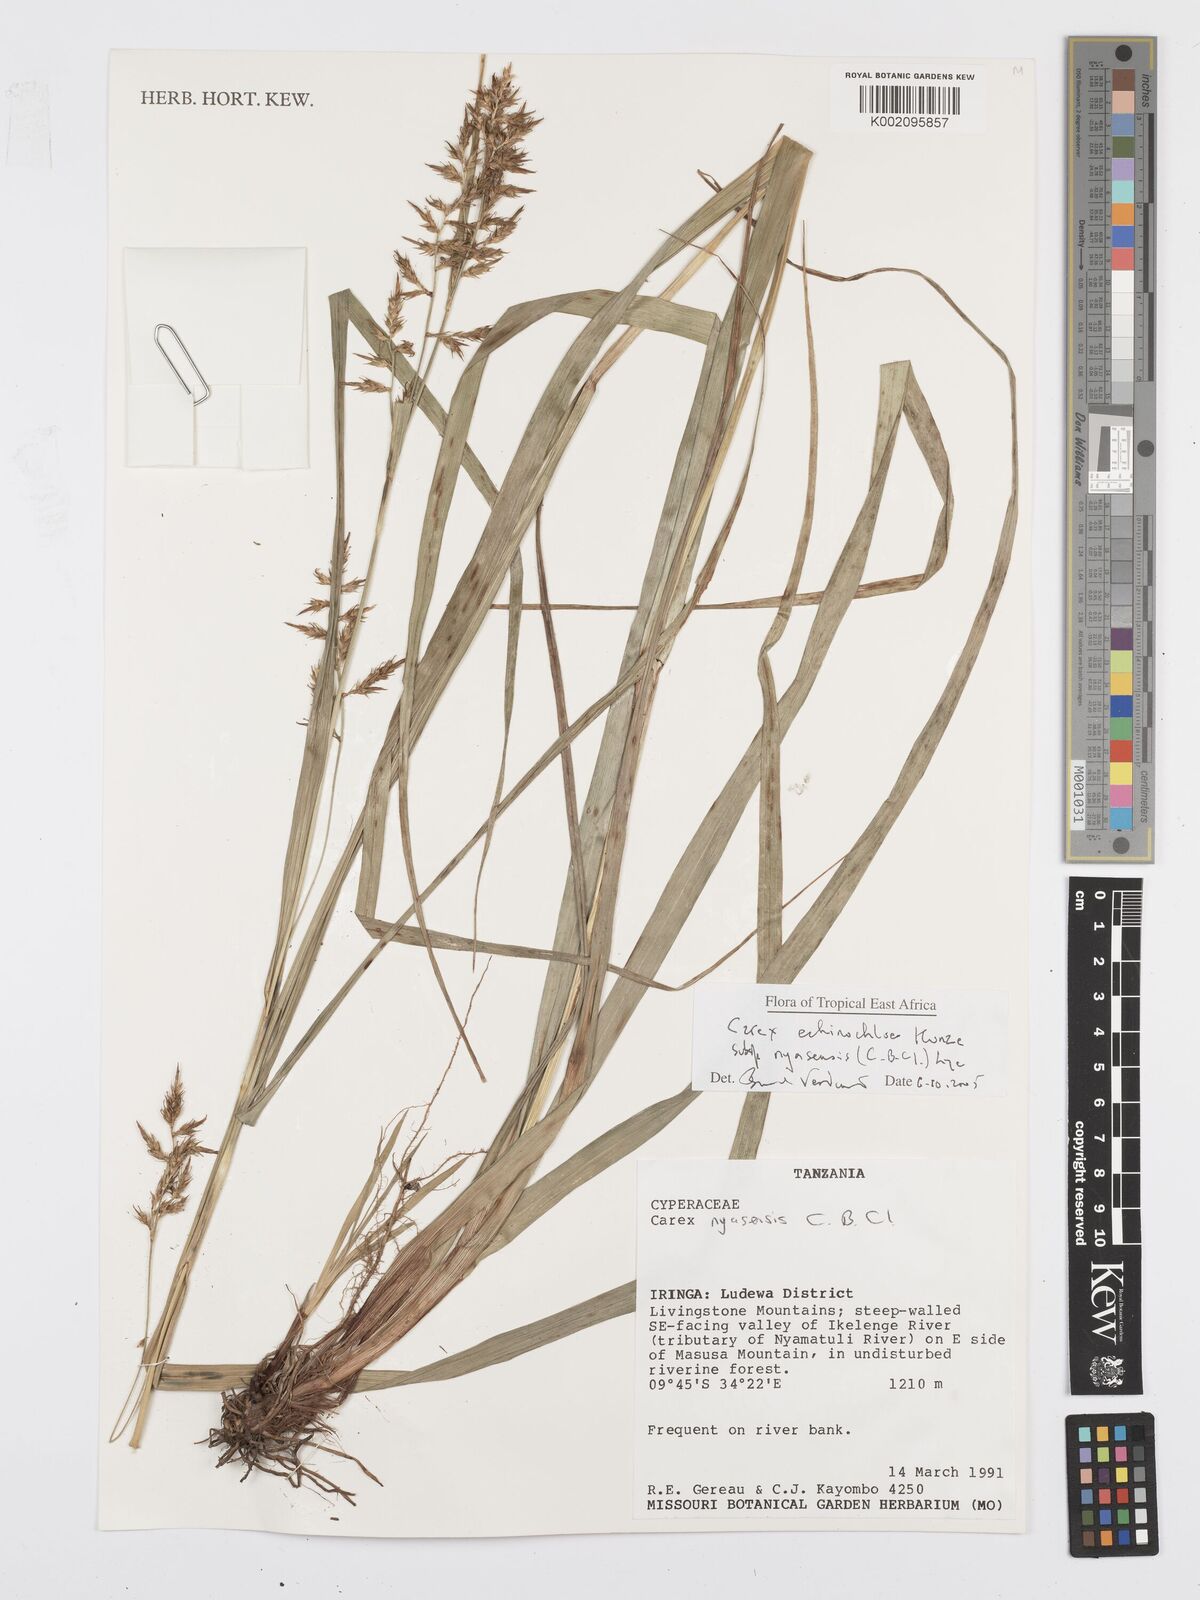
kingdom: Plantae
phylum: Tracheophyta
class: Liliopsida
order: Poales
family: Cyperaceae
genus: Carex
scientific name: Carex spicatopaniculata
